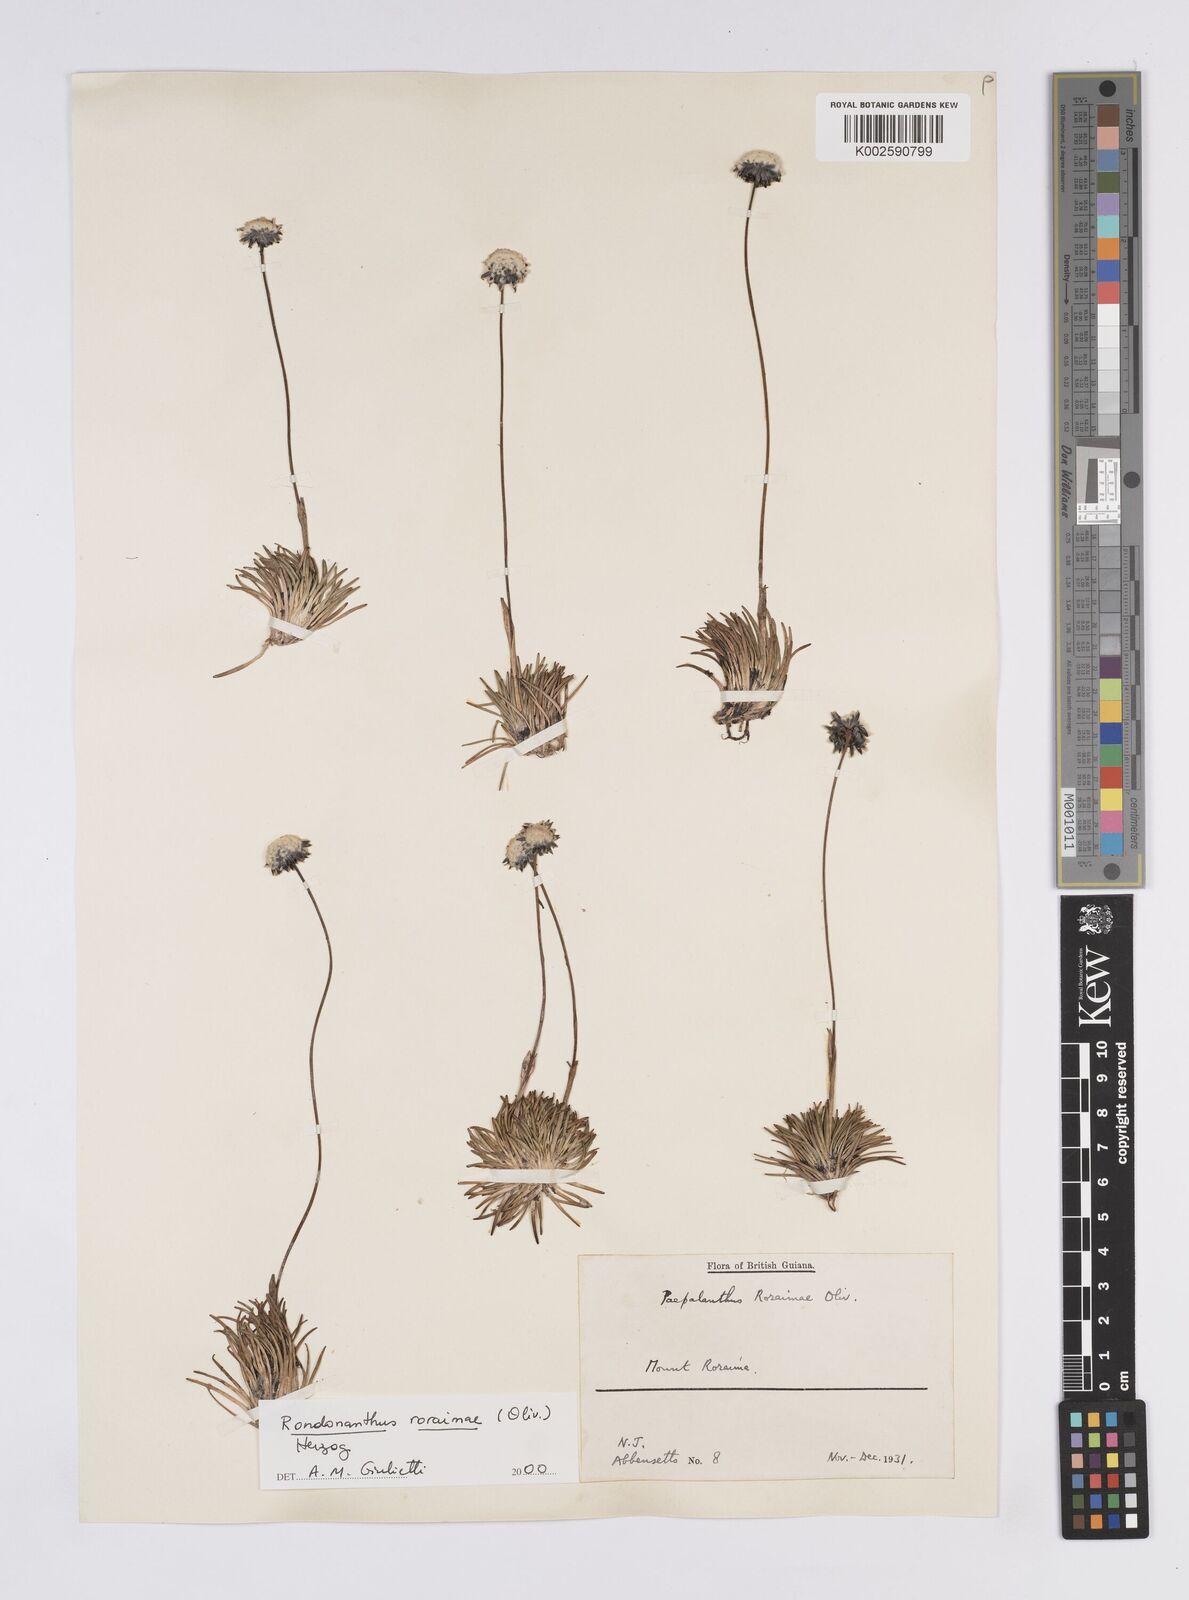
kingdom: Plantae
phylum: Tracheophyta
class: Liliopsida
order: Poales
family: Eriocaulaceae
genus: Rondonanthus
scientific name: Rondonanthus roraimae
